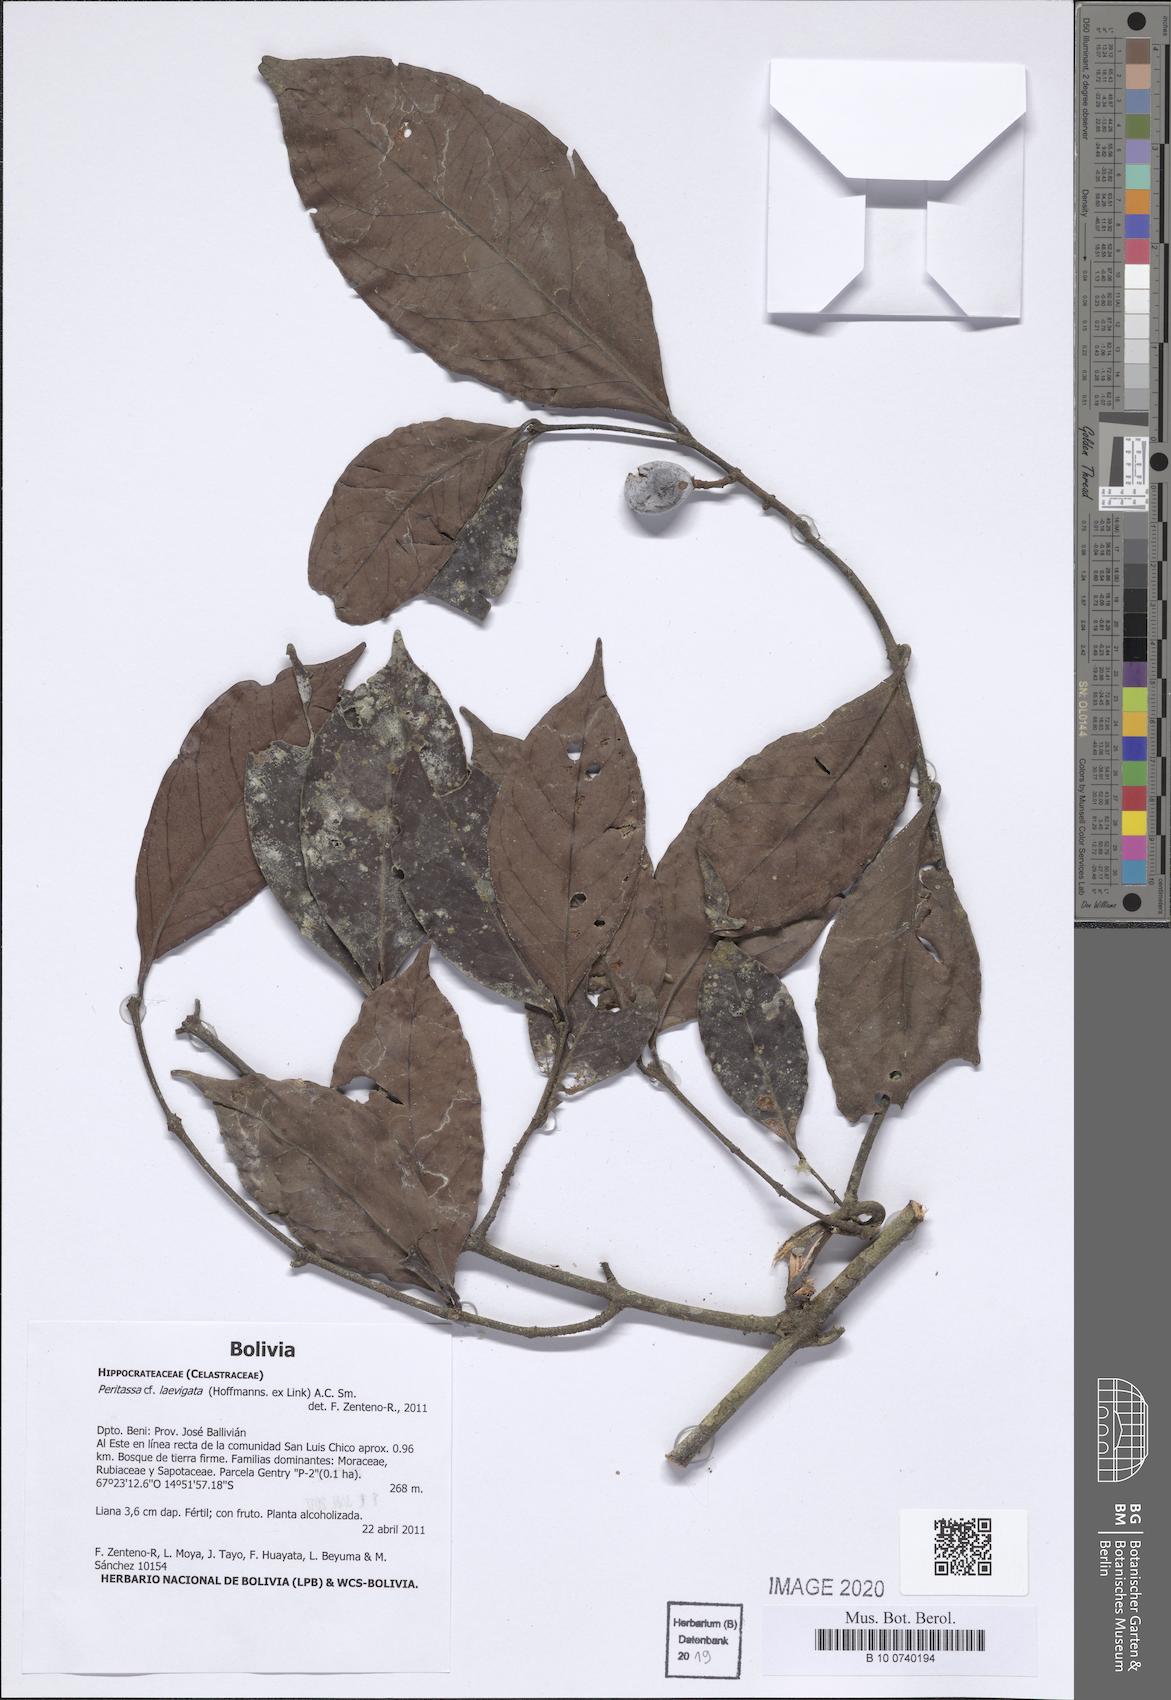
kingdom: Plantae
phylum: Tracheophyta
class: Magnoliopsida
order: Celastrales
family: Celastraceae
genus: Peritassa
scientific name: Peritassa laevigata
